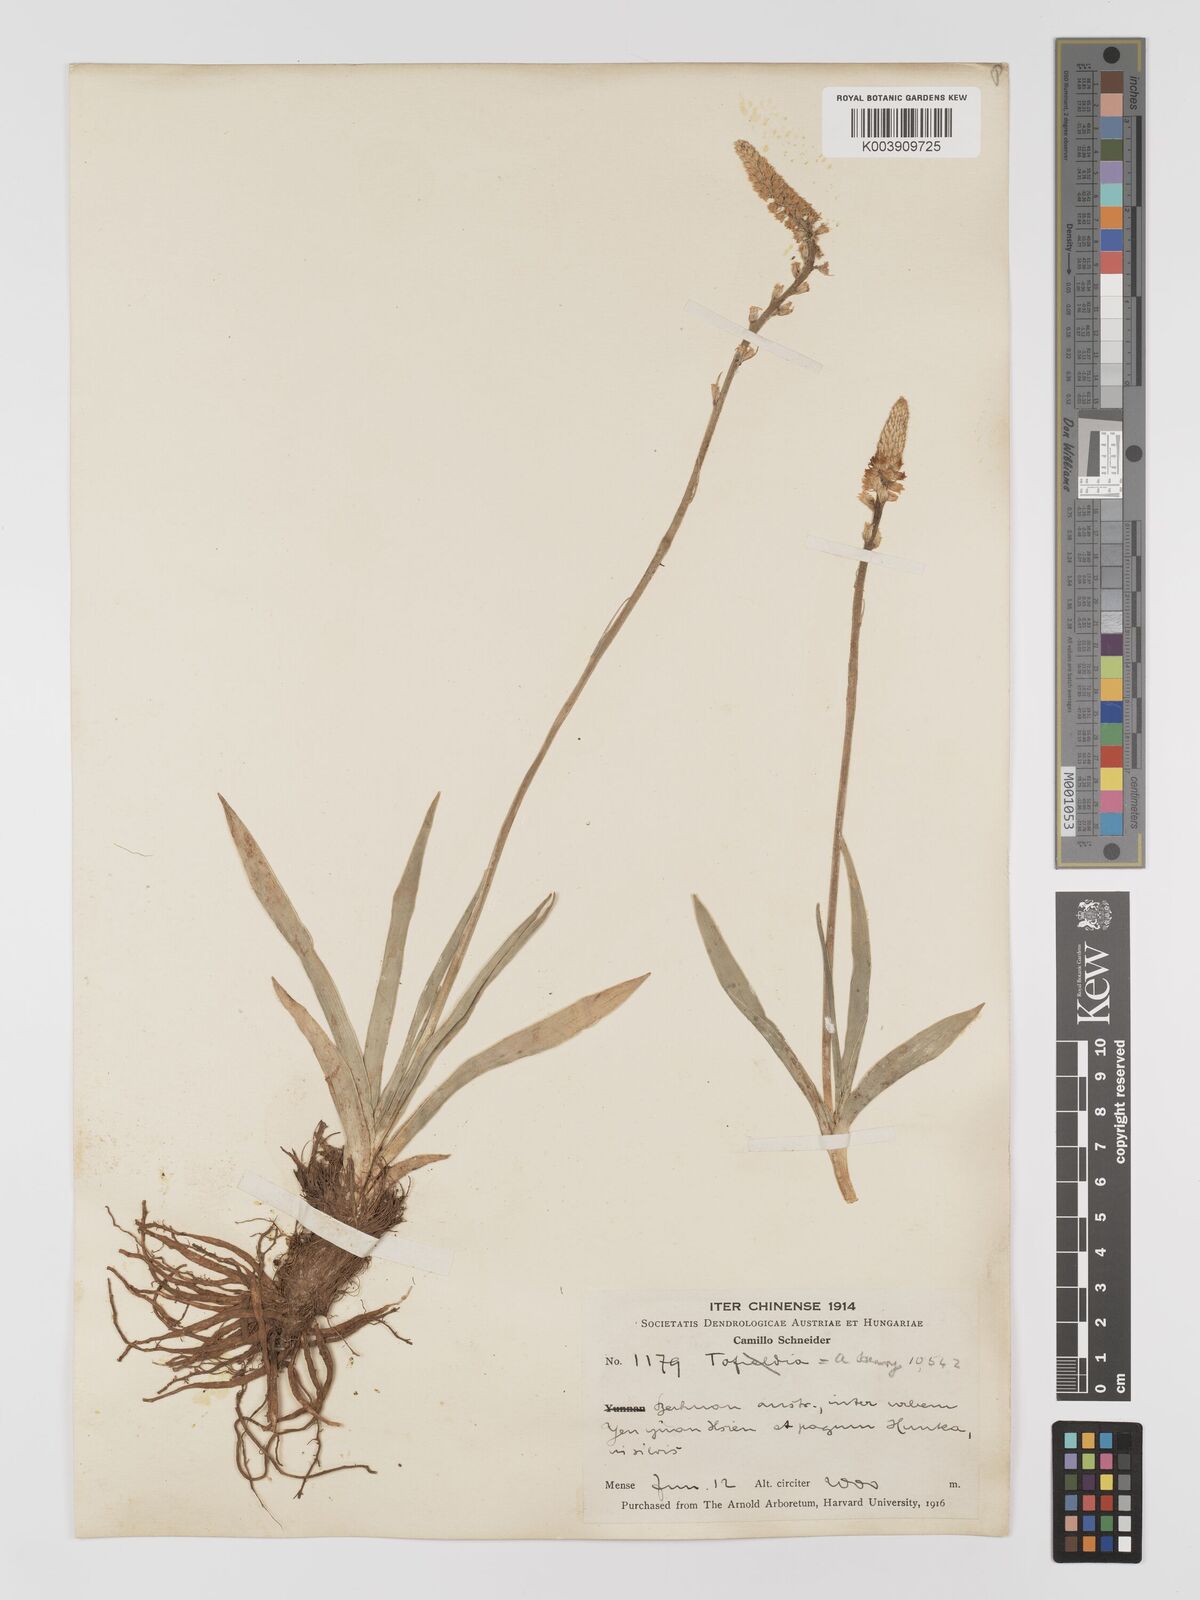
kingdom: Plantae
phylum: Tracheophyta
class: Liliopsida
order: Dioscoreales
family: Nartheciaceae
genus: Aletris
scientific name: Aletris pauciflora
